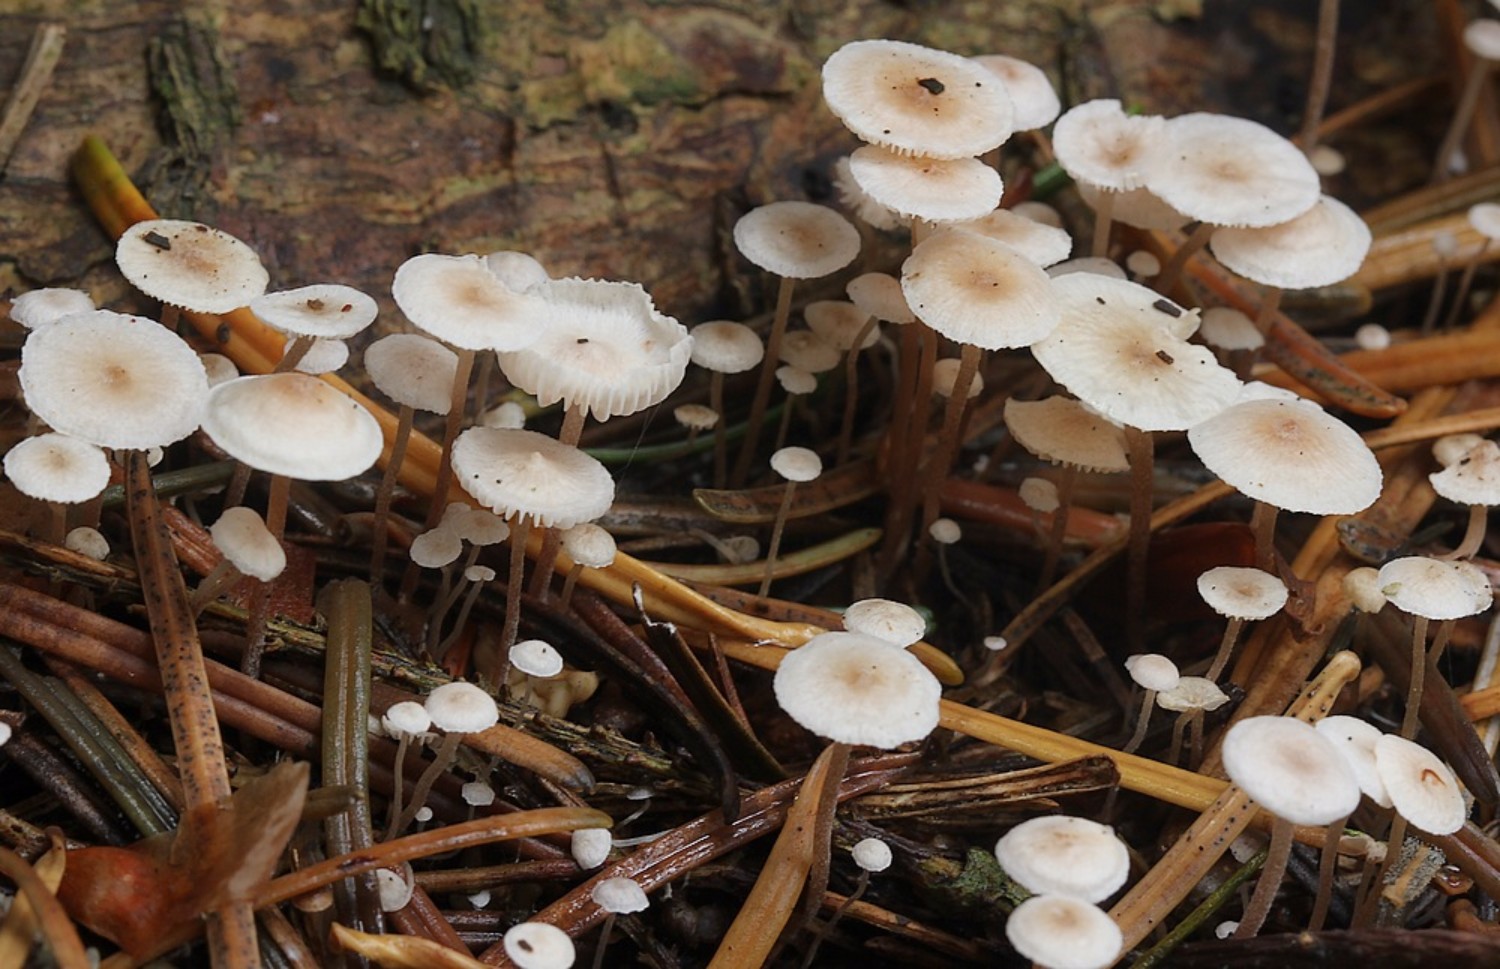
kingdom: Fungi
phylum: Basidiomycota
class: Agaricomycetes
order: Agaricales
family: Tricholomataceae
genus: Collybia
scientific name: Collybia
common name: lighat
